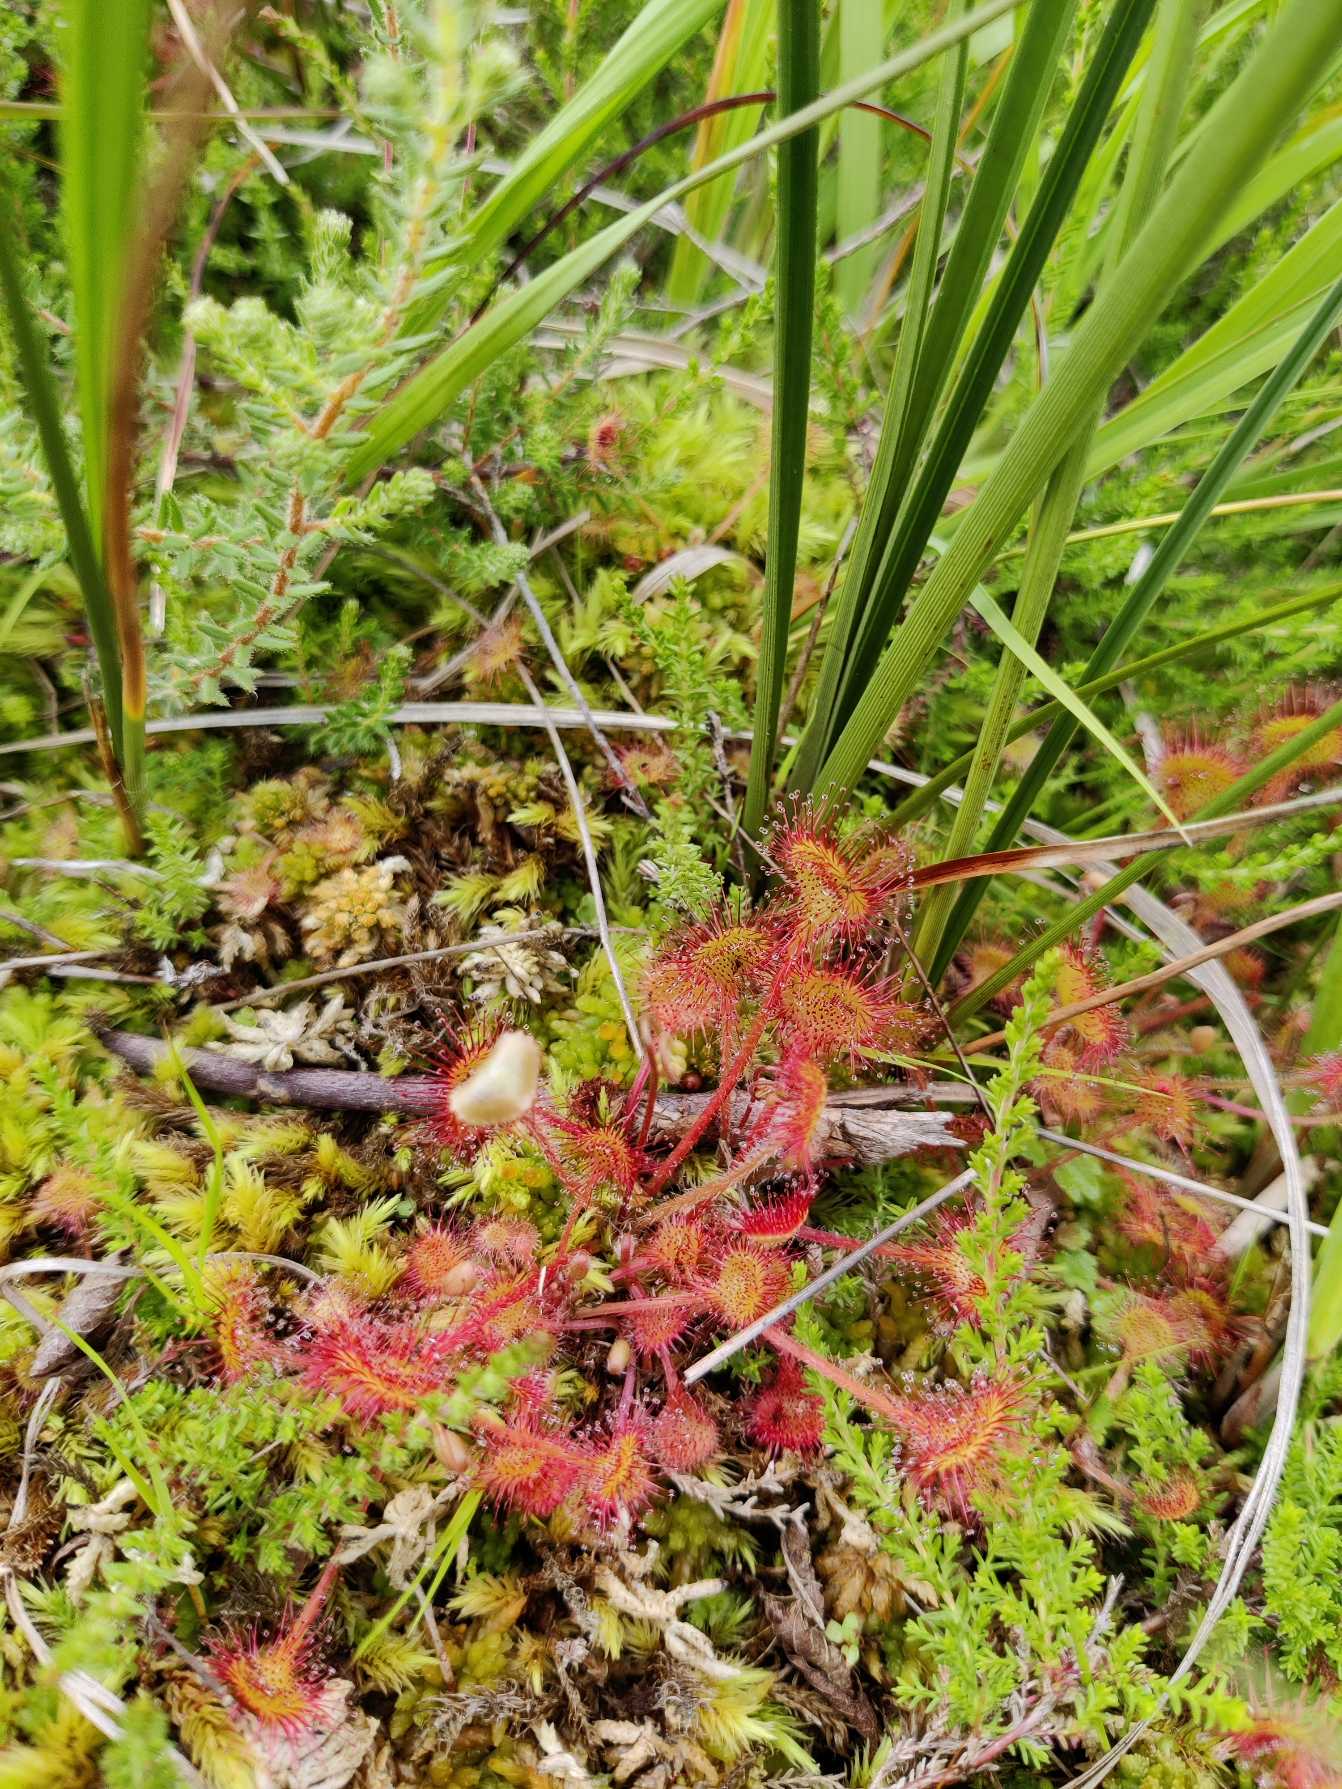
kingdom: Plantae
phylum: Tracheophyta
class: Magnoliopsida
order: Caryophyllales
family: Droseraceae
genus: Drosera
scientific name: Drosera rotundifolia
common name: Rundbladet soldug
